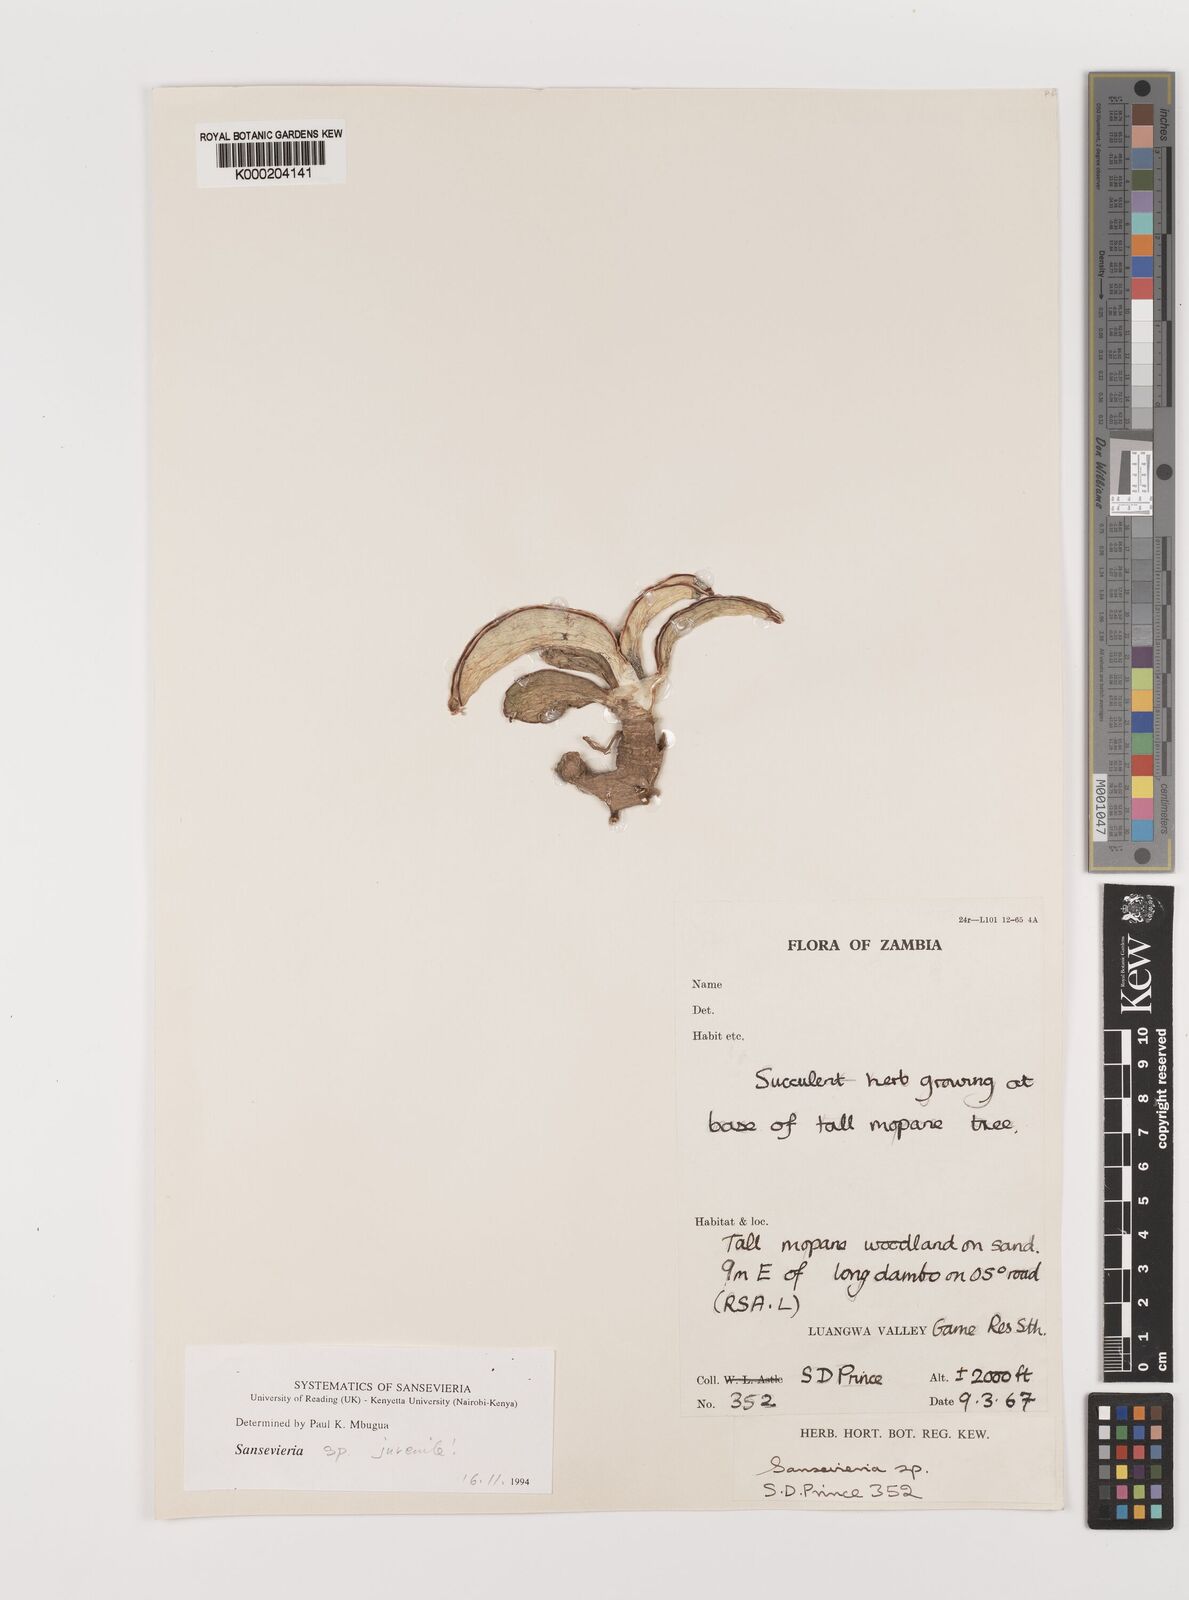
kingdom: Plantae
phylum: Tracheophyta
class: Liliopsida
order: Asparagales
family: Asparagaceae
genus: Dracaena
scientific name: Dracaena
